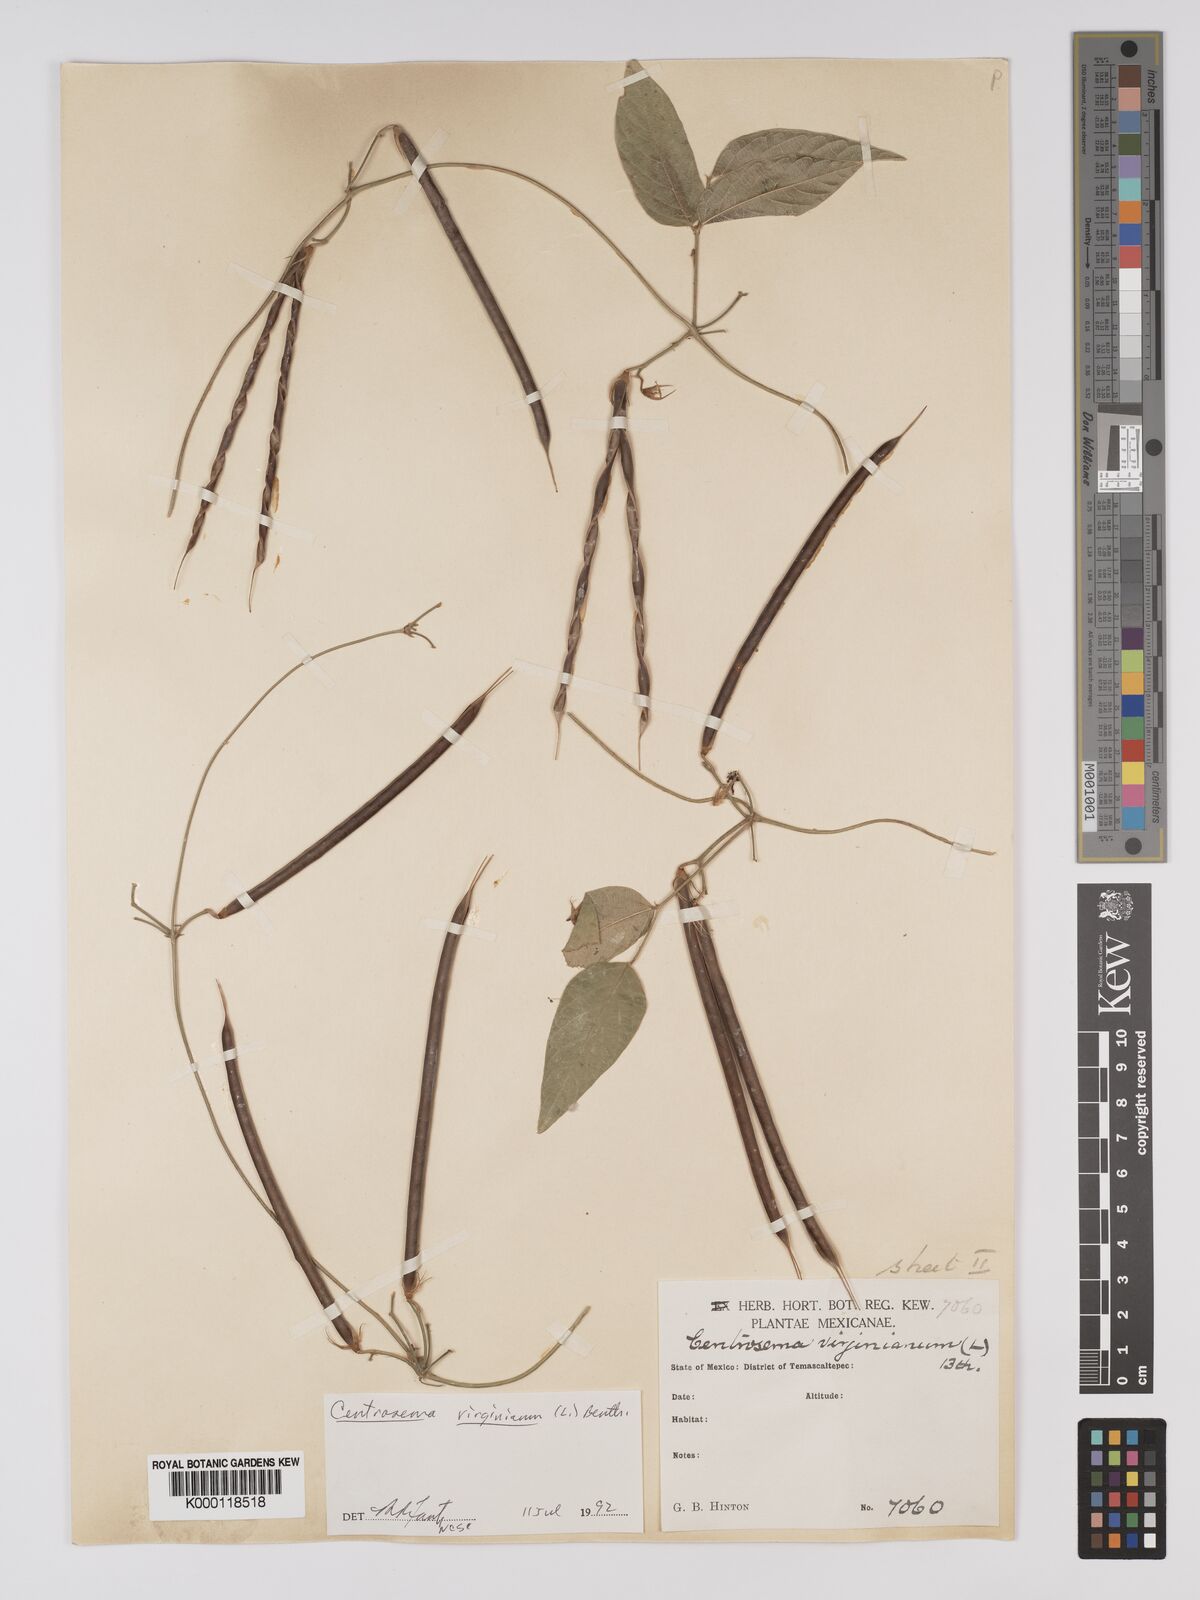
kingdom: Plantae
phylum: Tracheophyta
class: Magnoliopsida
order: Fabales
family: Fabaceae
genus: Centrosema
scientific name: Centrosema virginianum
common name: Butterfly-pea
